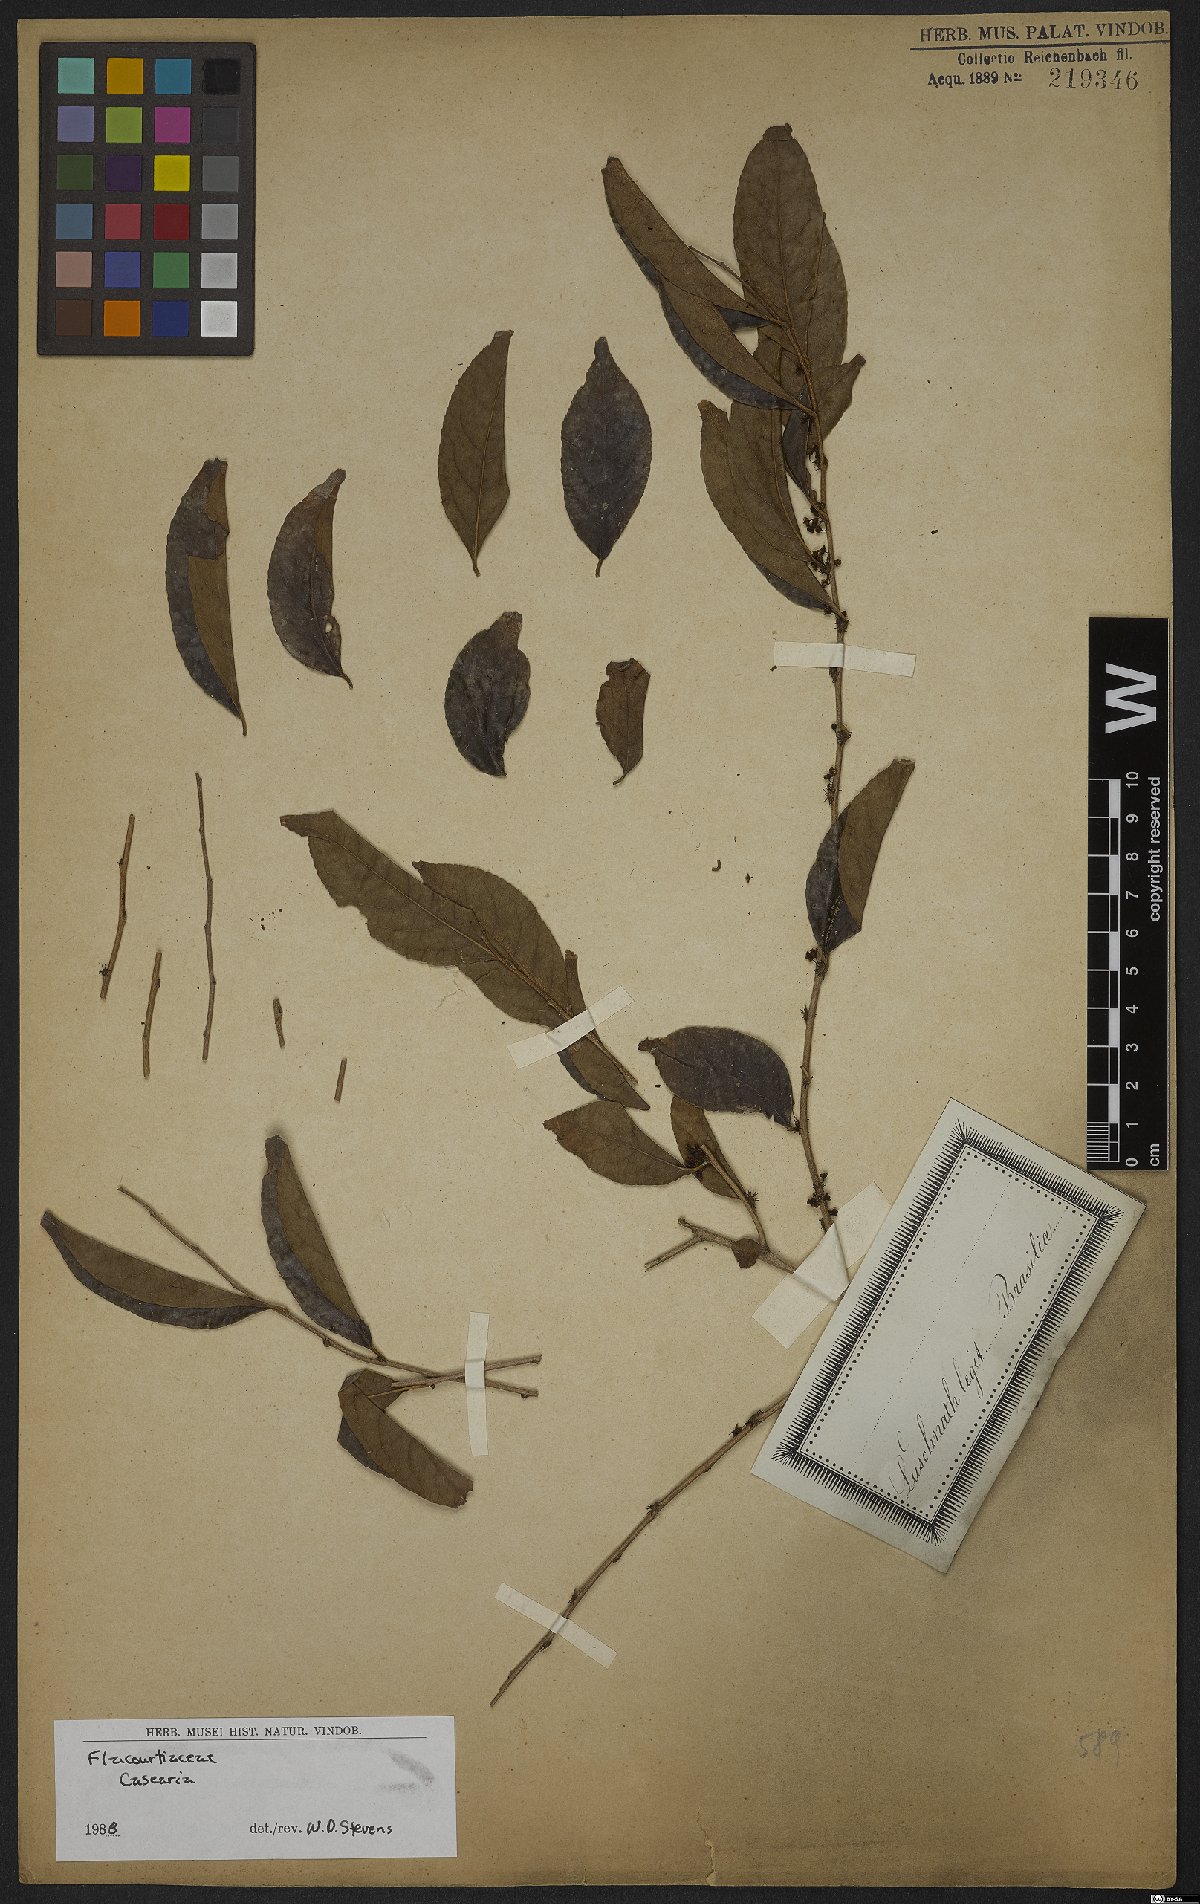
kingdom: Plantae
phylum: Tracheophyta
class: Magnoliopsida
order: Malpighiales
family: Salicaceae
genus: Casearia
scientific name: Casearia
